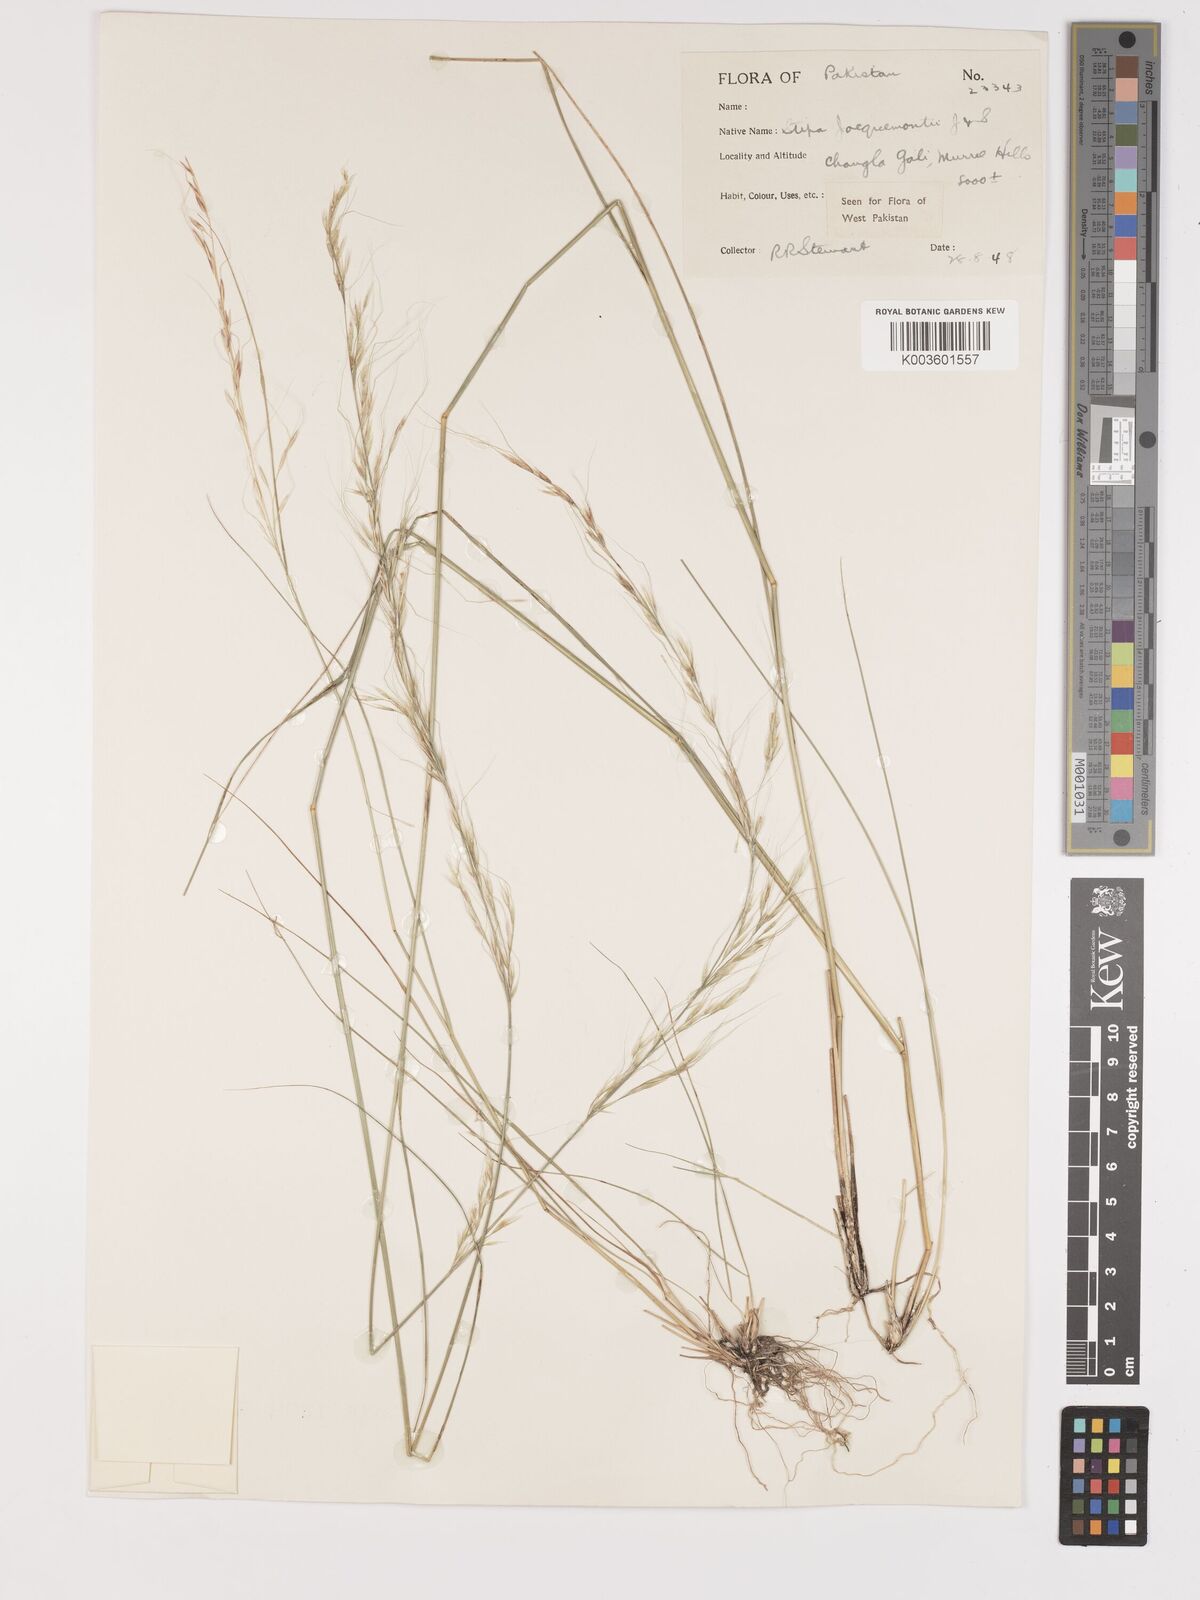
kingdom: Plantae
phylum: Tracheophyta
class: Liliopsida
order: Poales
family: Poaceae
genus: Achnatherum
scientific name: Achnatherum jacquemontii
